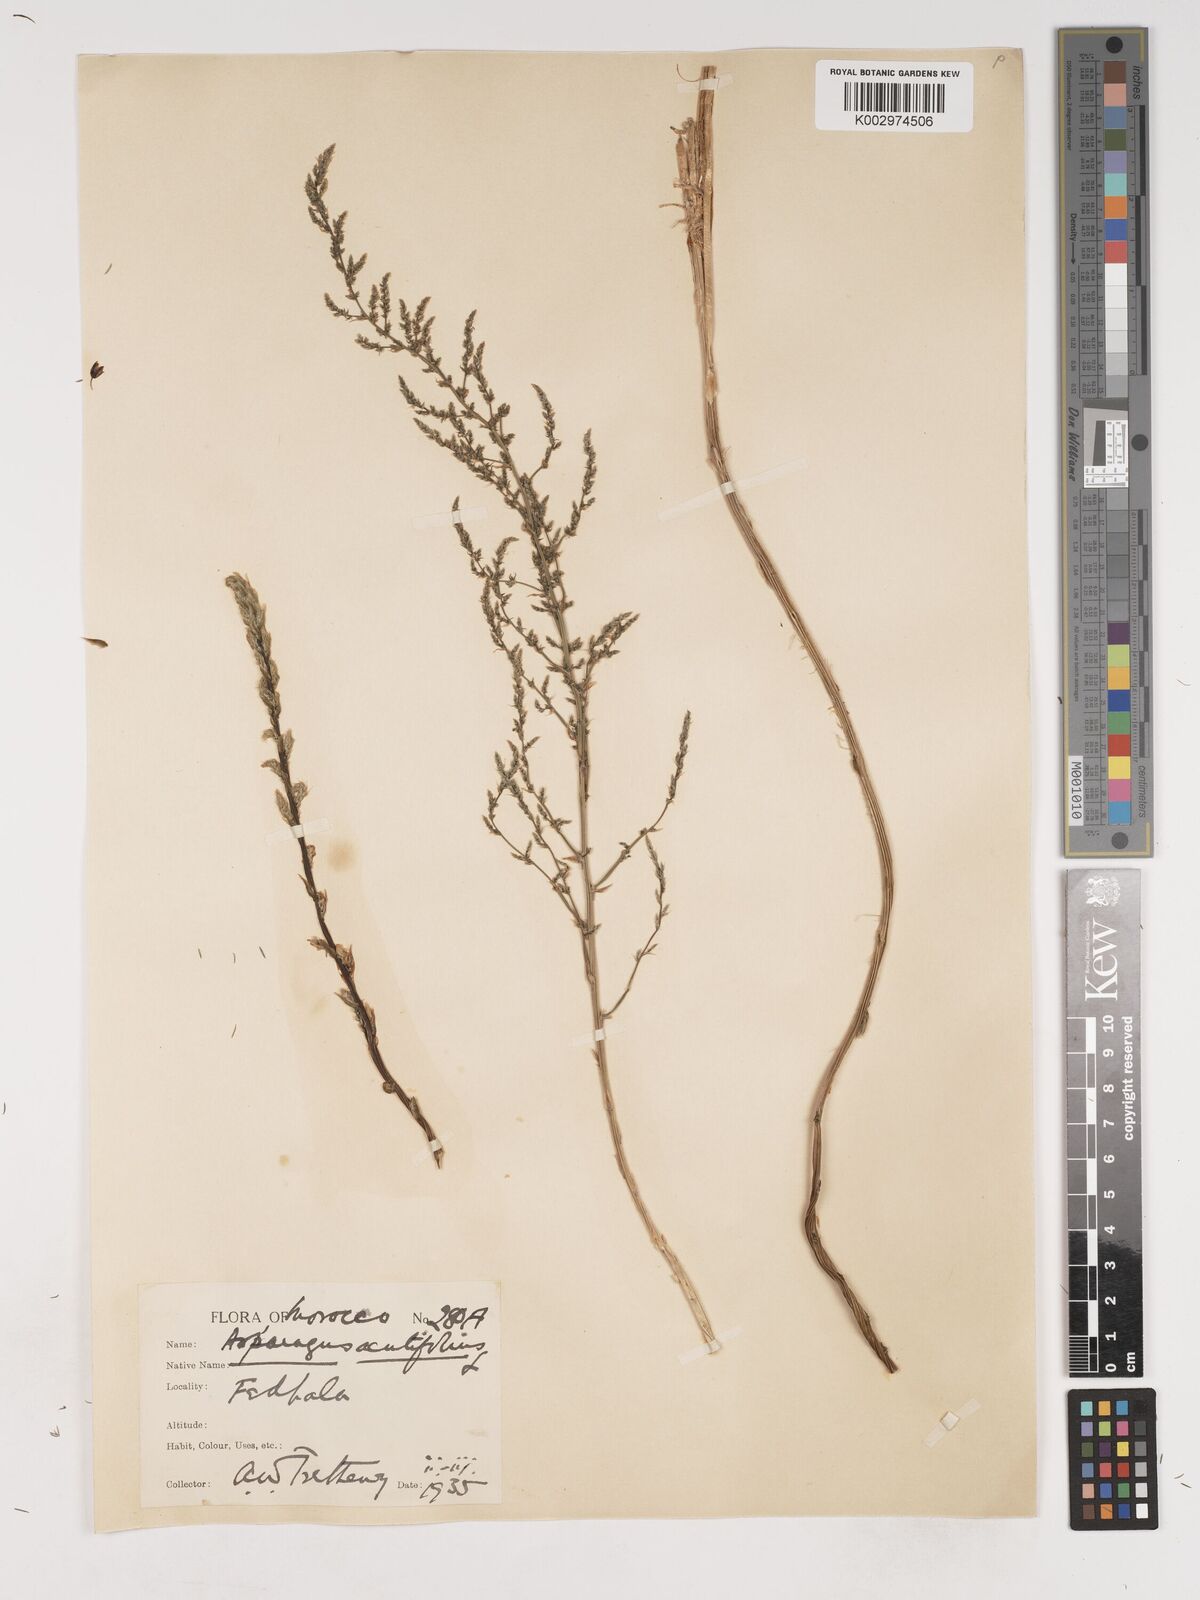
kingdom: Plantae
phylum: Tracheophyta
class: Liliopsida
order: Asparagales
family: Asparagaceae
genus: Asparagus
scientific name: Asparagus acutifolius
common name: Wild asparagus
